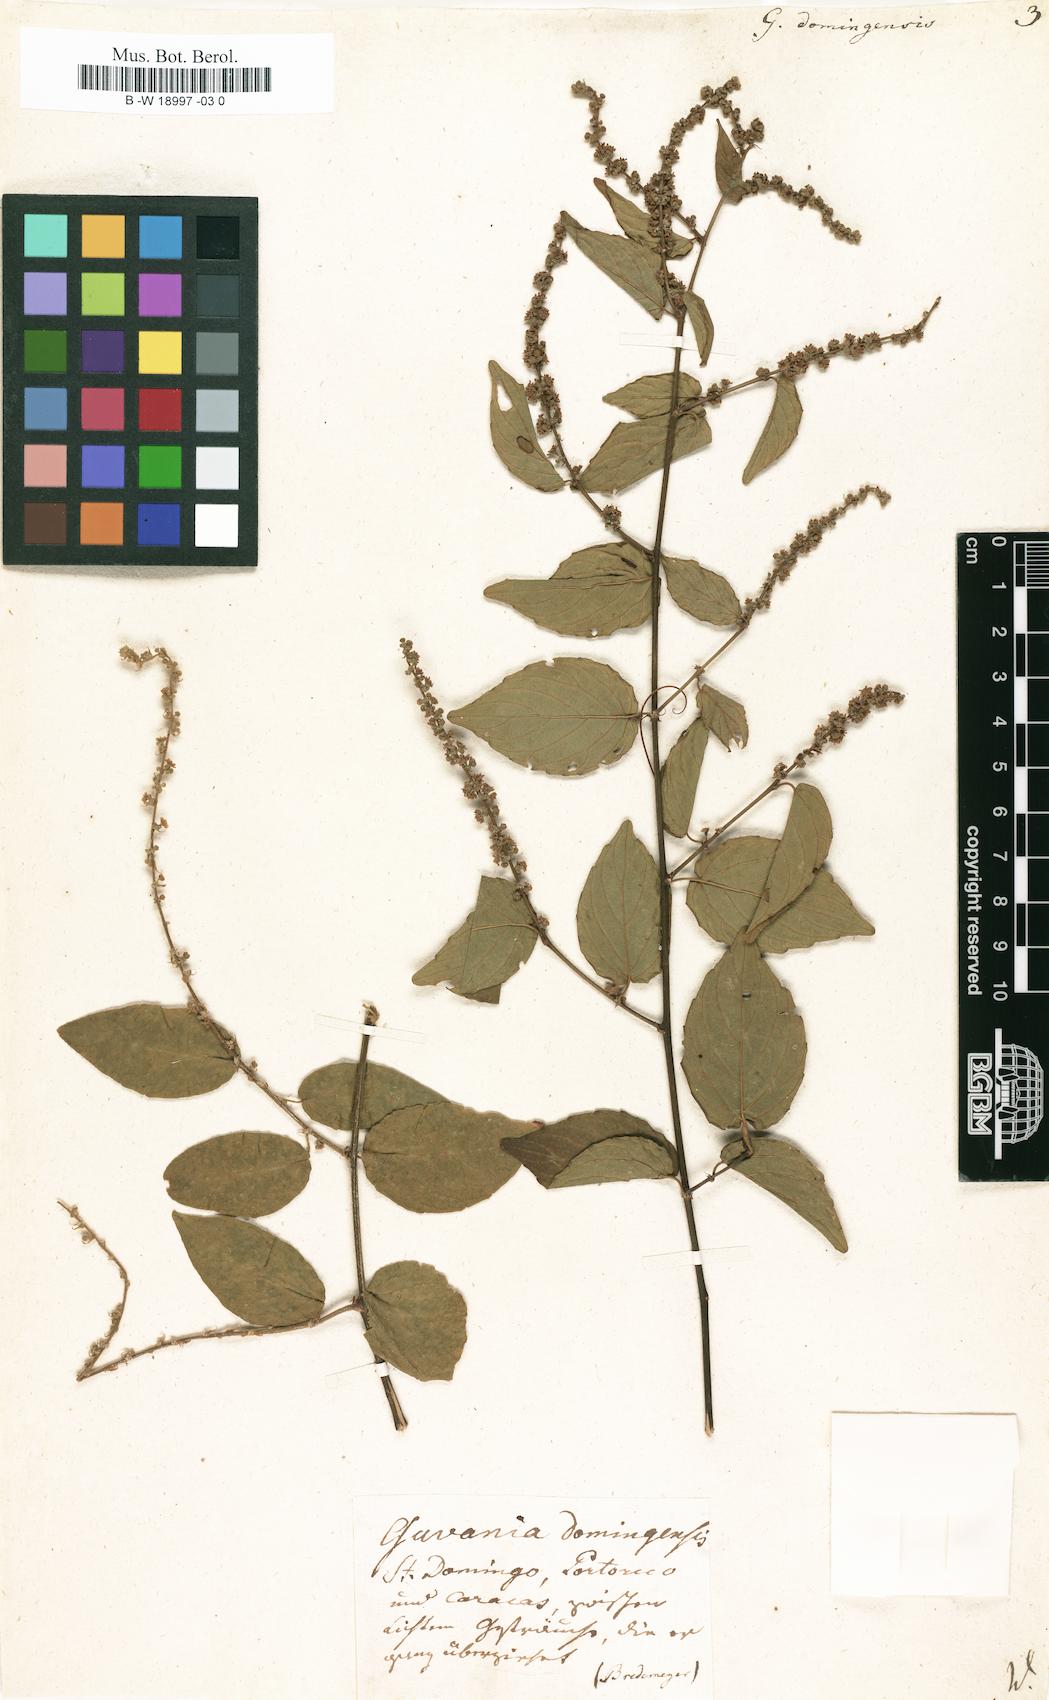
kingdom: Plantae
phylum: Tracheophyta
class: Magnoliopsida
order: Rosales
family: Rhamnaceae
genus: Gouania
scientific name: Gouania striata
